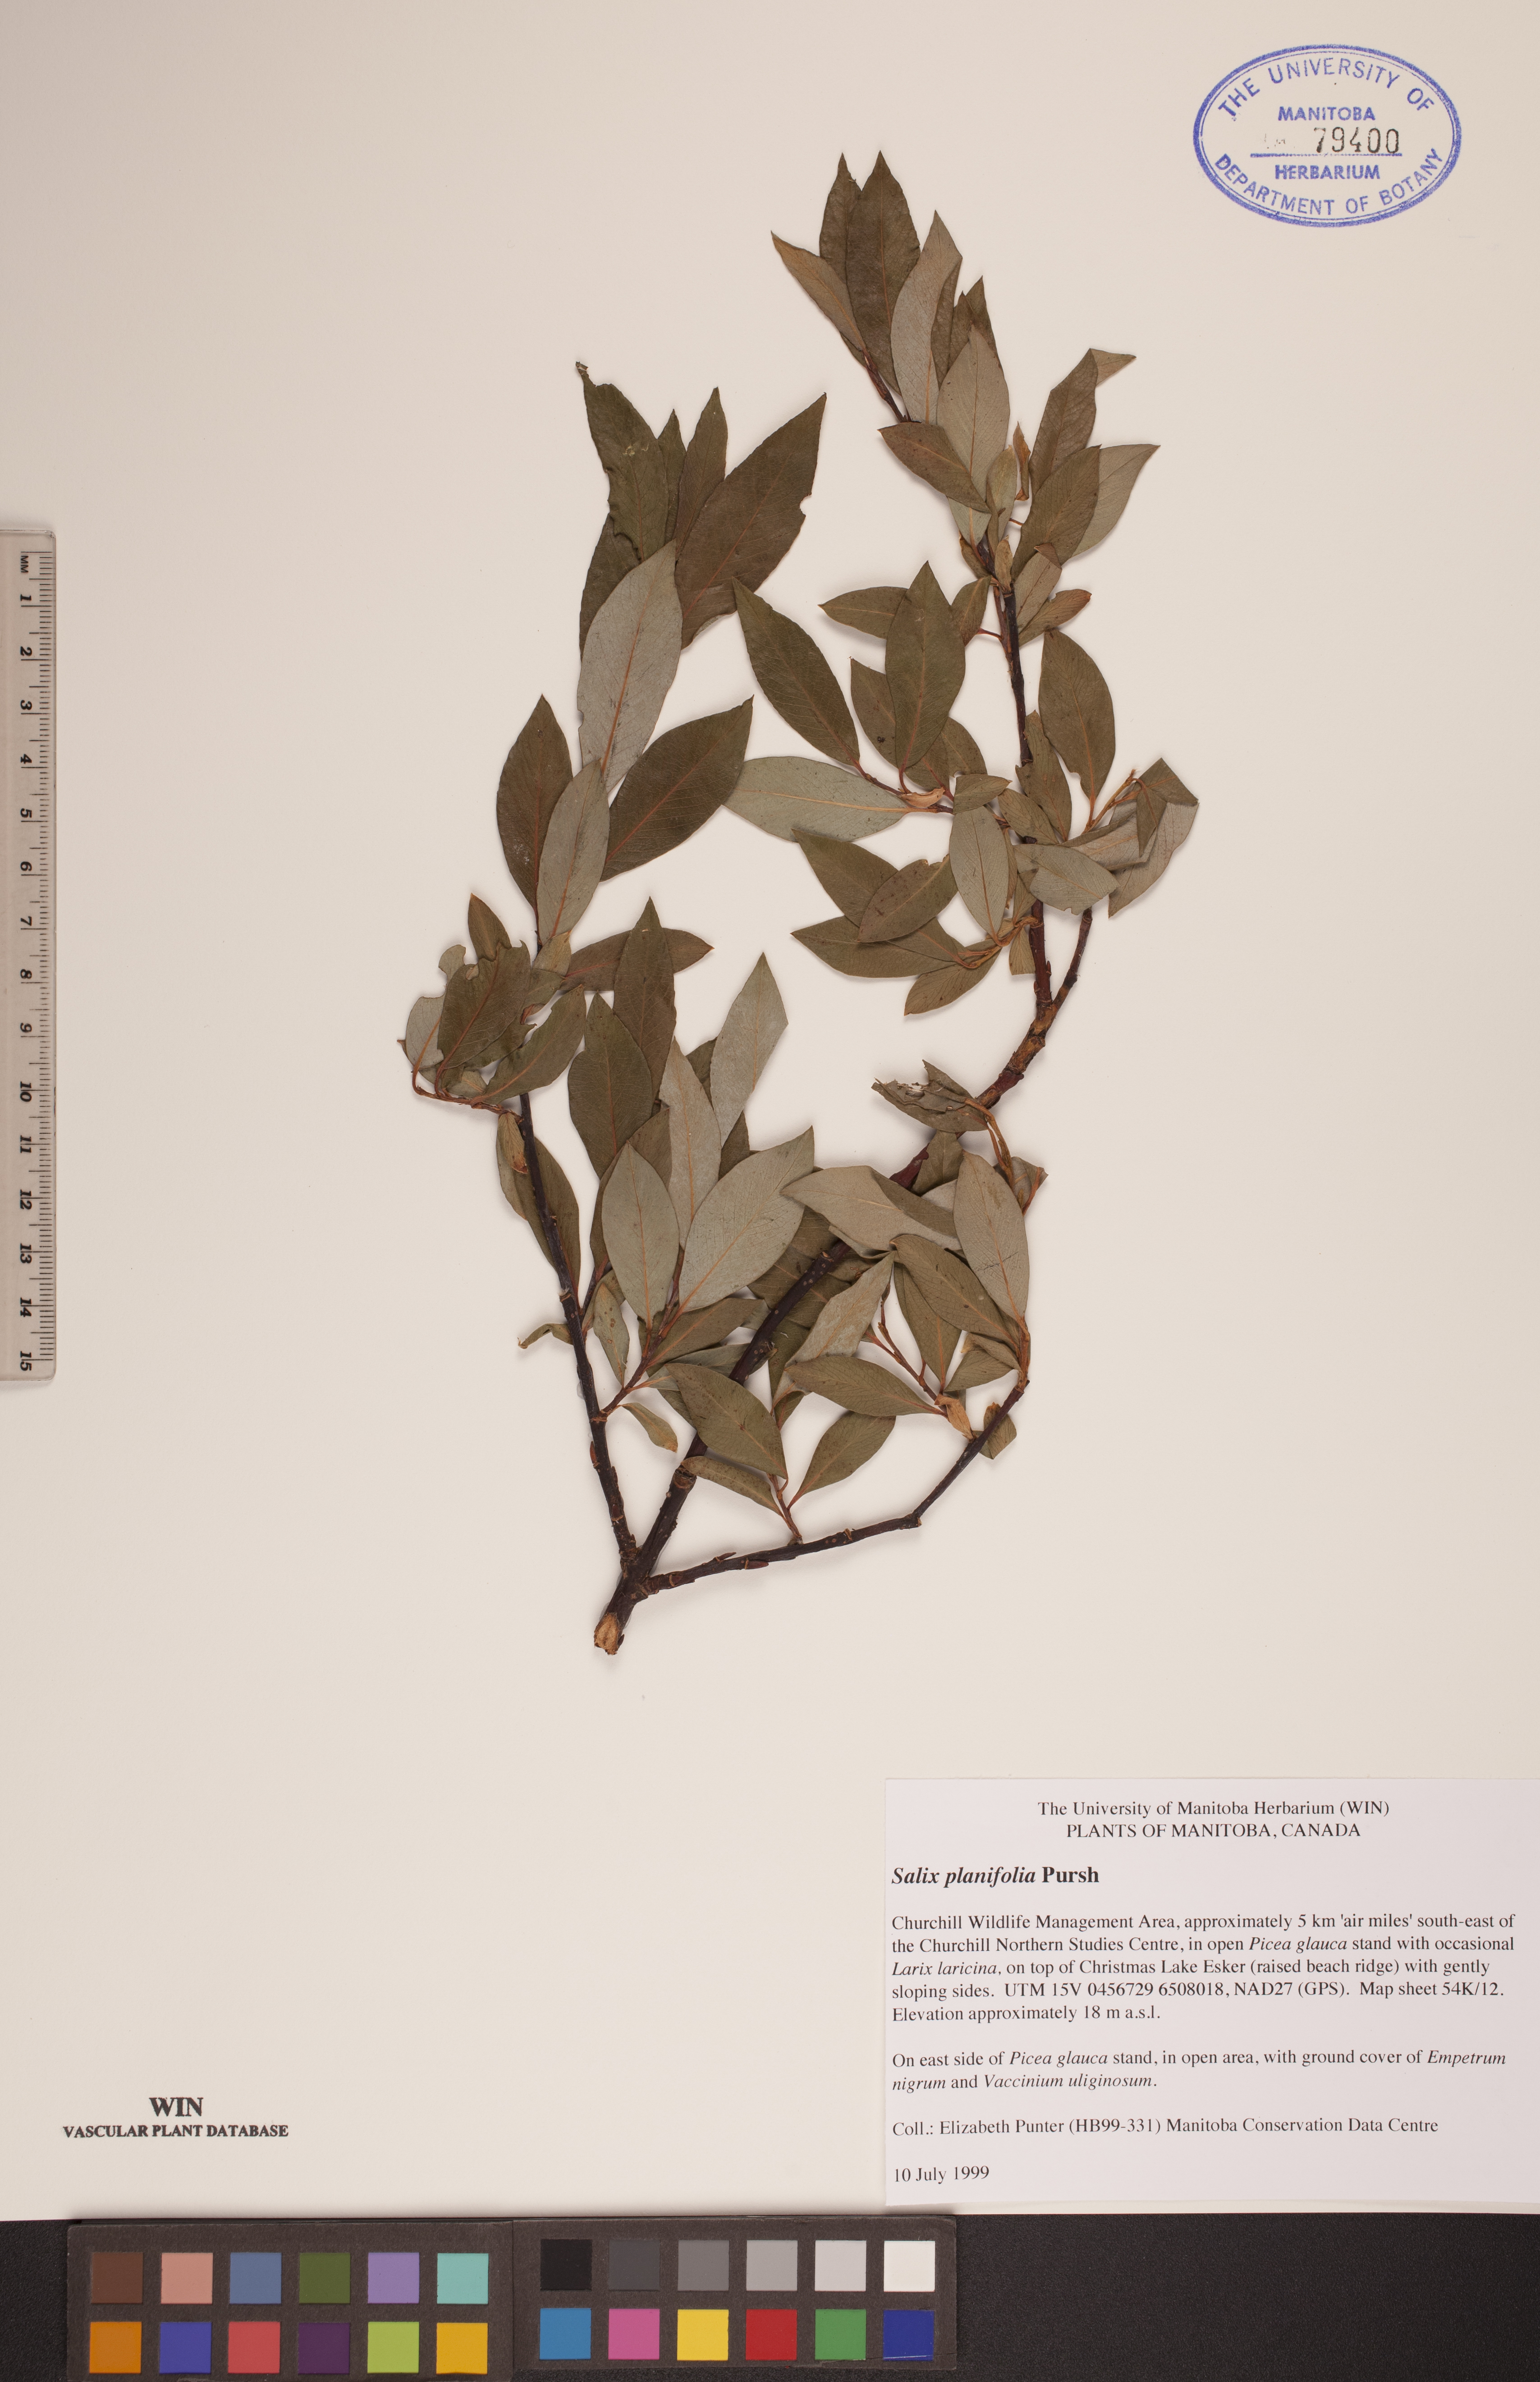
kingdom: Plantae
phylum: Tracheophyta
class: Magnoliopsida
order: Malpighiales
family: Salicaceae
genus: Salix
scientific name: Salix planifolia
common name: Mountain willow
